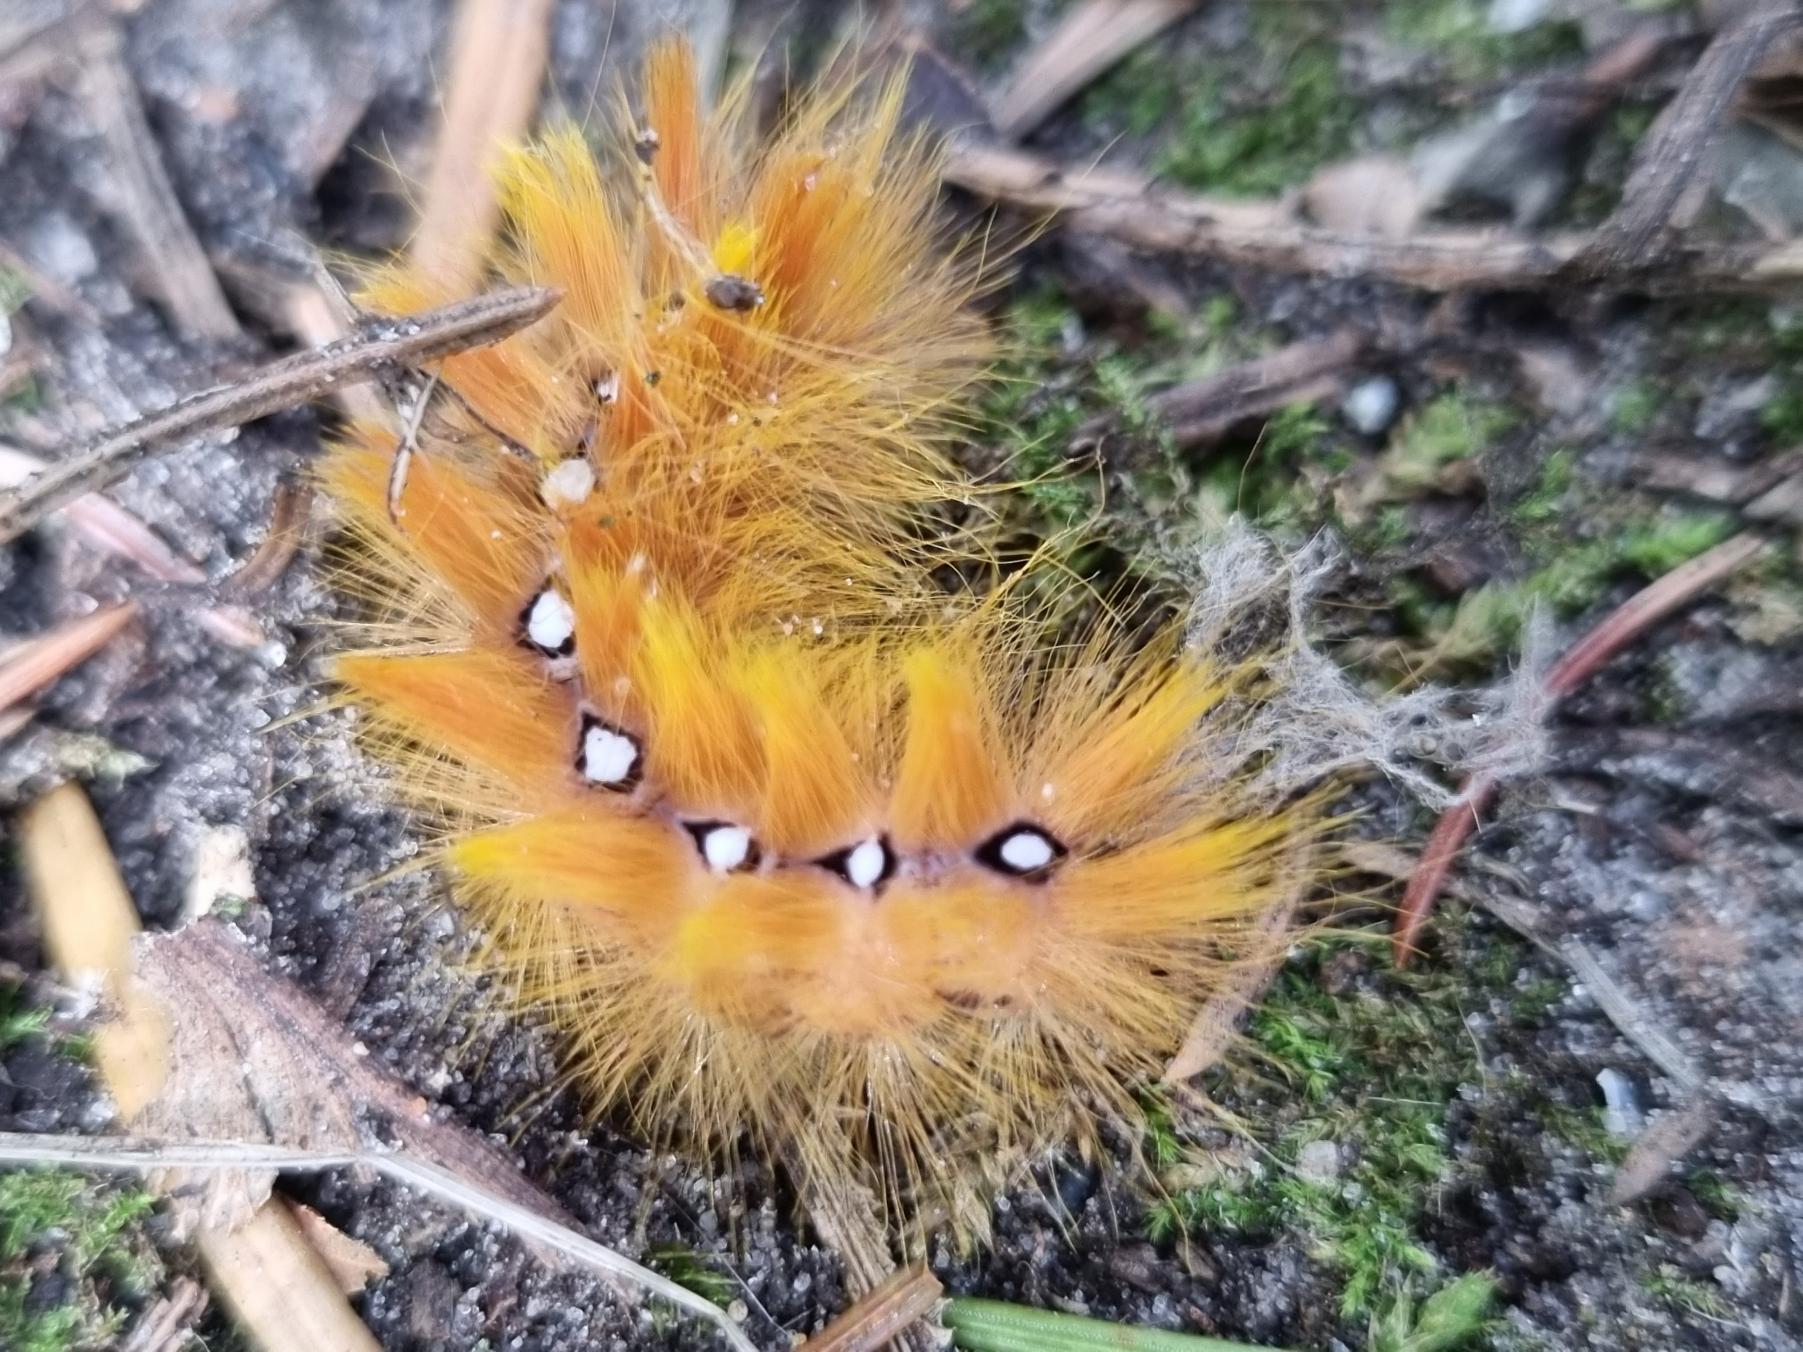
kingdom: Animalia
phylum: Arthropoda
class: Insecta
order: Lepidoptera
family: Noctuidae
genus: Acronicta
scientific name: Acronicta aceris
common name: Ahornugle
